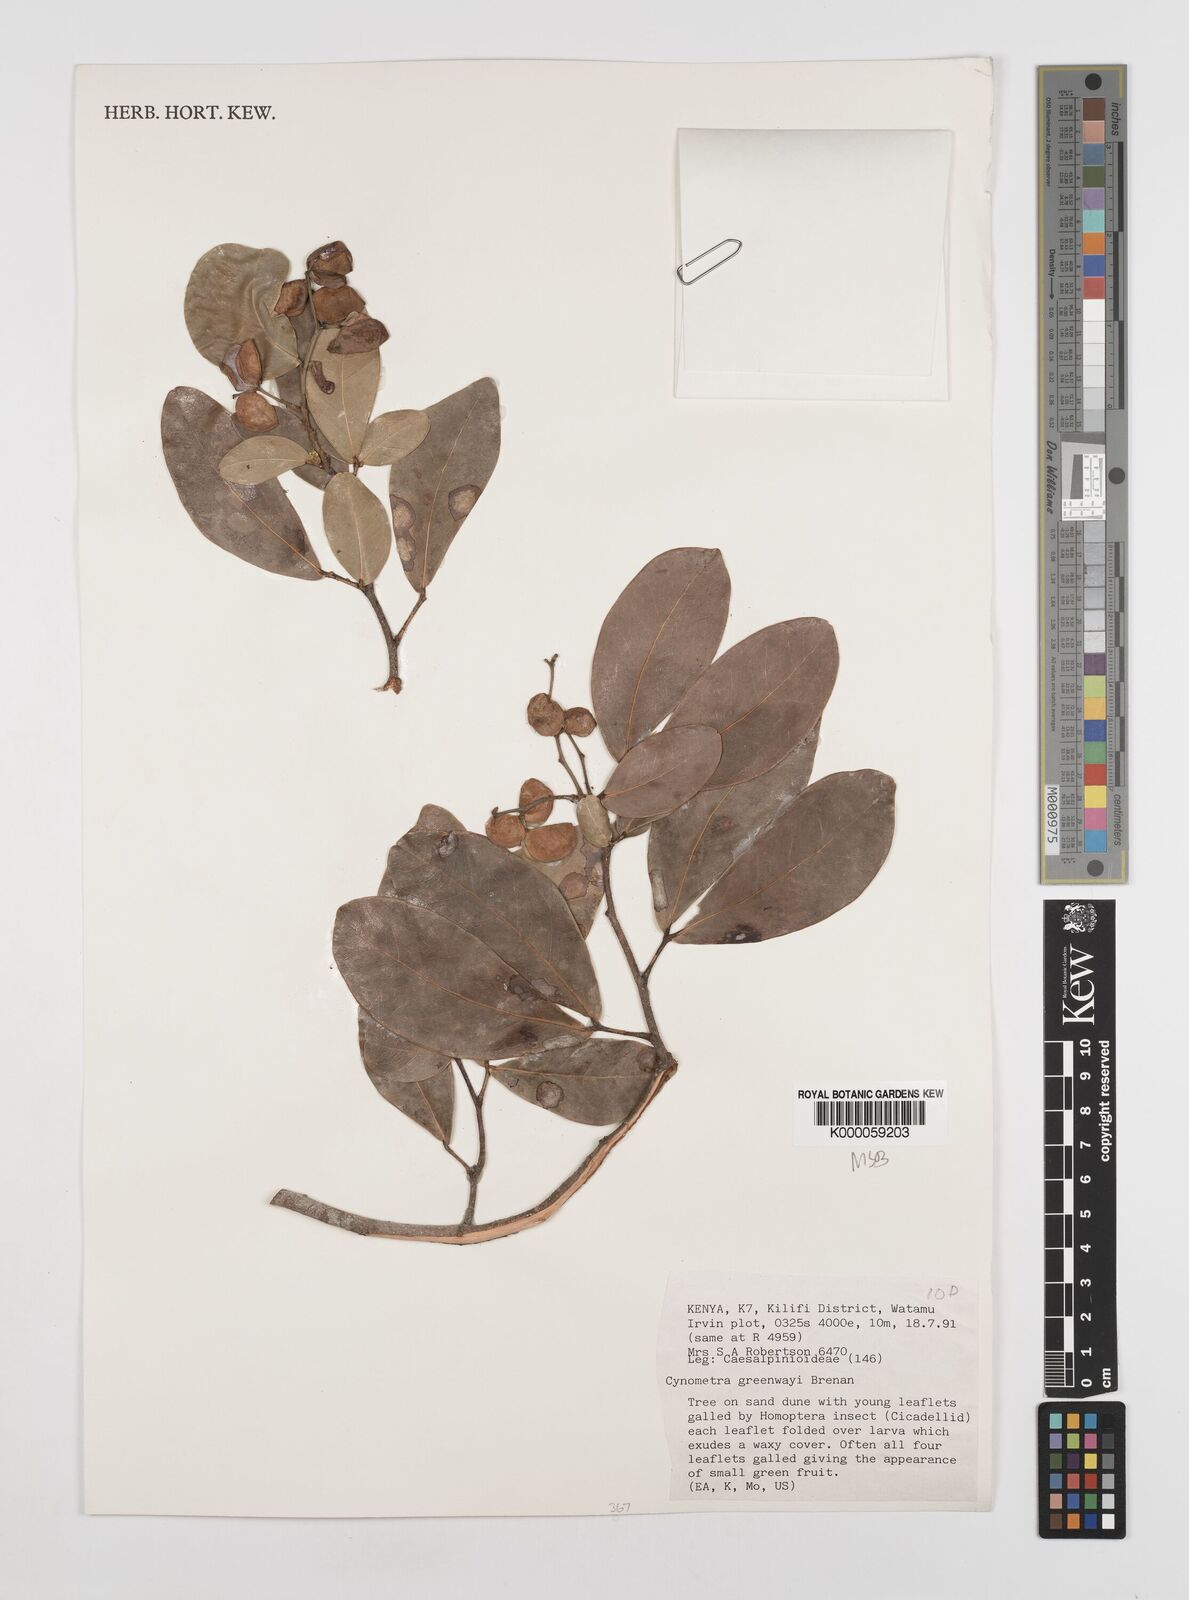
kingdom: Plantae
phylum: Tracheophyta
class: Magnoliopsida
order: Fabales
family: Fabaceae
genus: Cynometra
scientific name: Cynometra greenwayi
